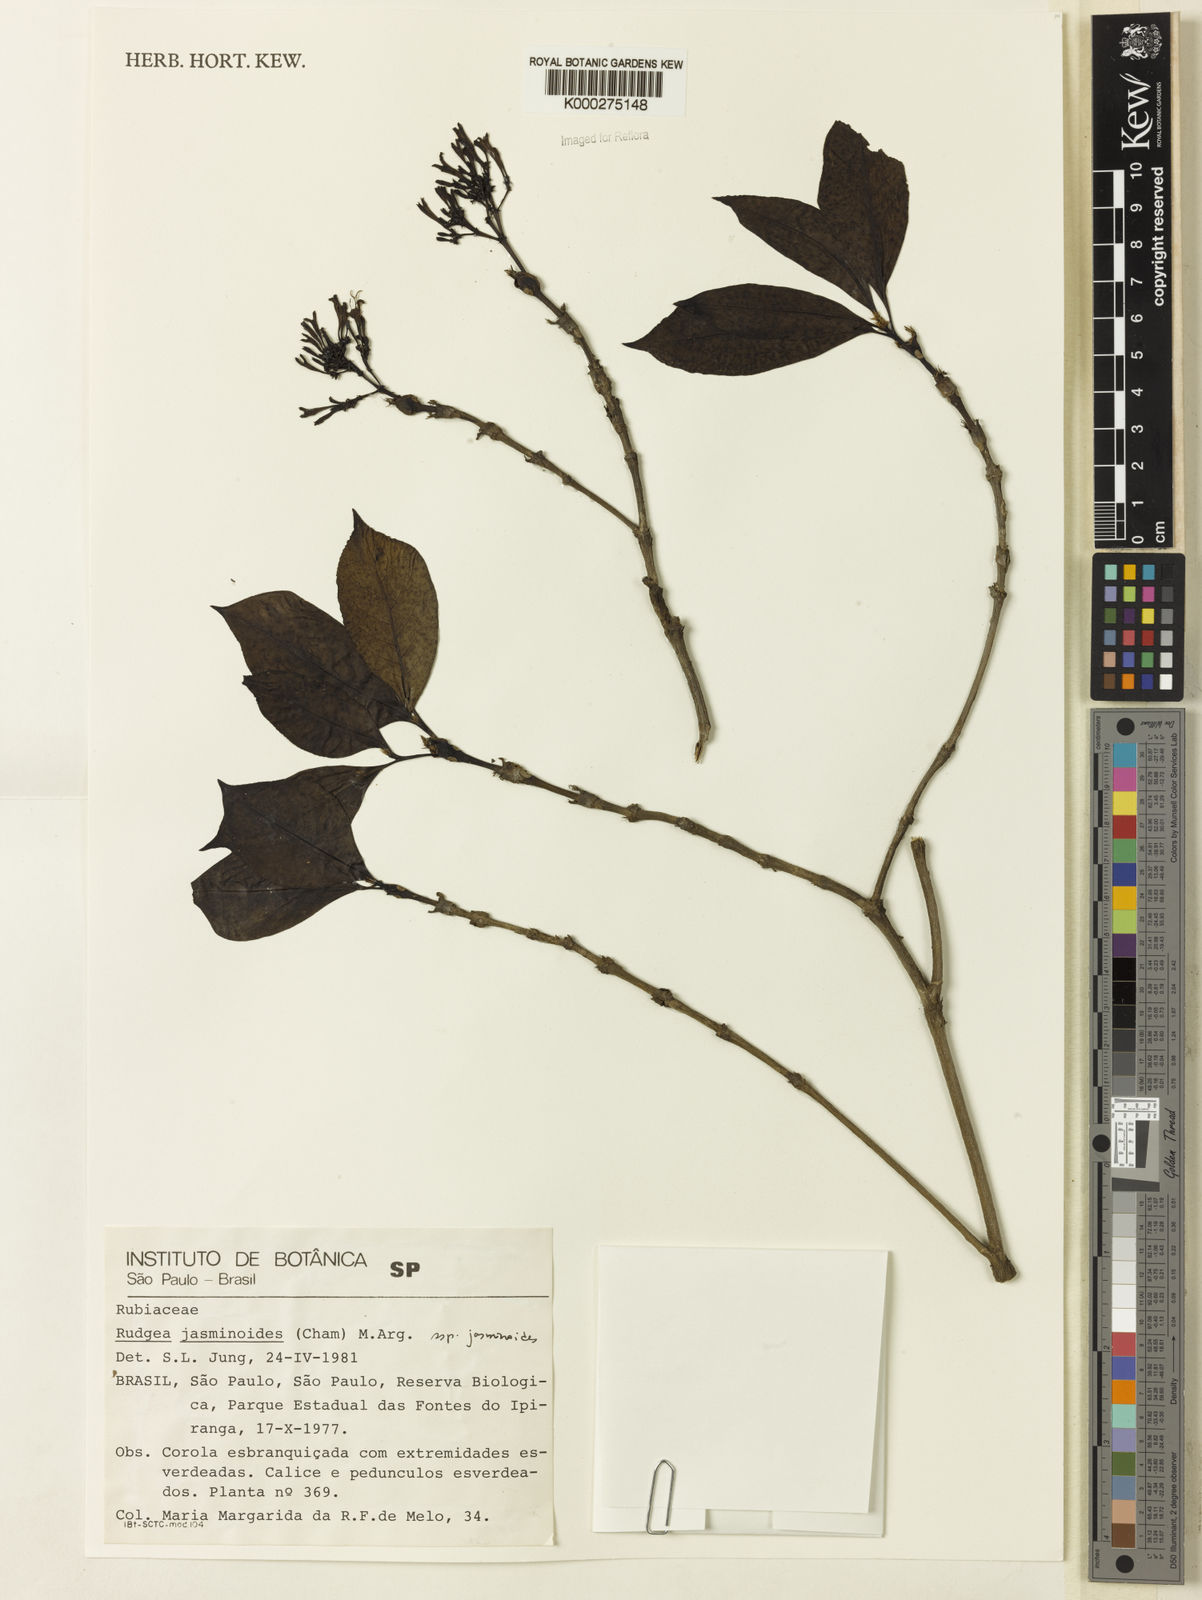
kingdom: Plantae
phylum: Tracheophyta
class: Magnoliopsida
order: Gentianales
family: Rubiaceae
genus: Rudgea
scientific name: Rudgea jasminoides
